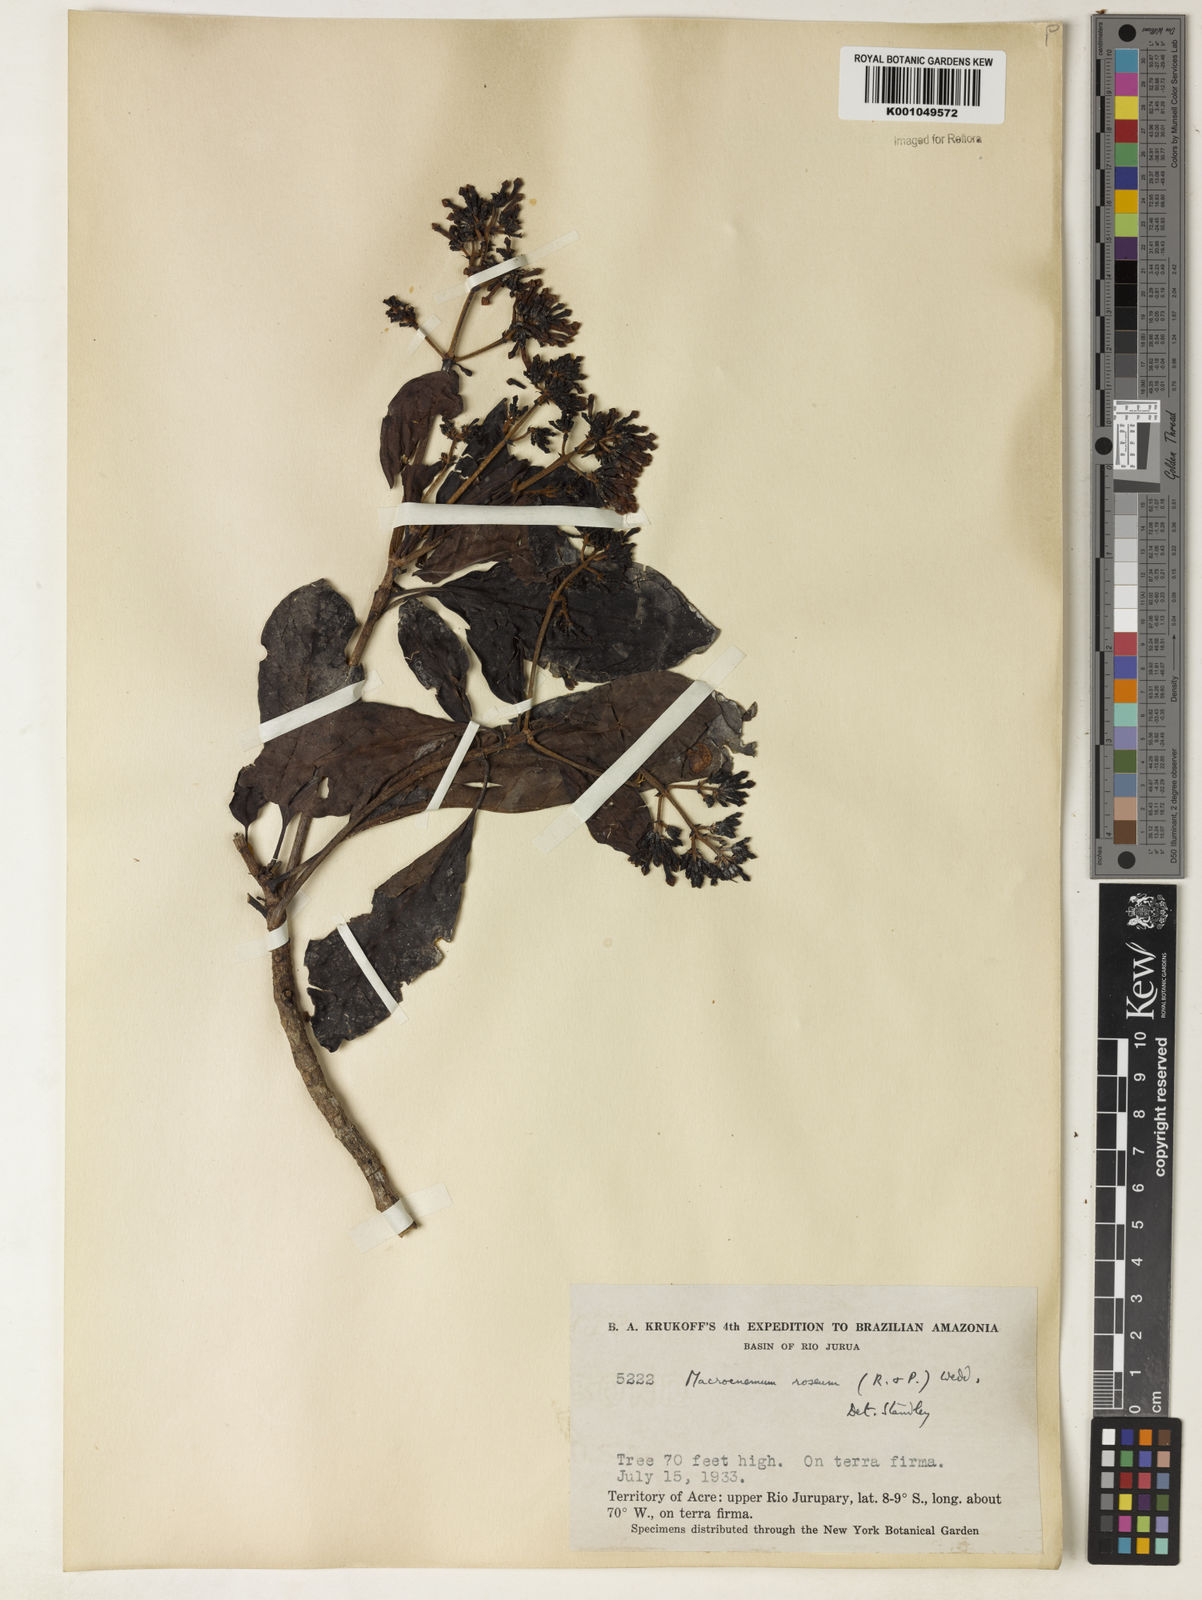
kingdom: Plantae
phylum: Tracheophyta
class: Magnoliopsida
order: Gentianales
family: Rubiaceae
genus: Macrocnemum
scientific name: Macrocnemum roseum
